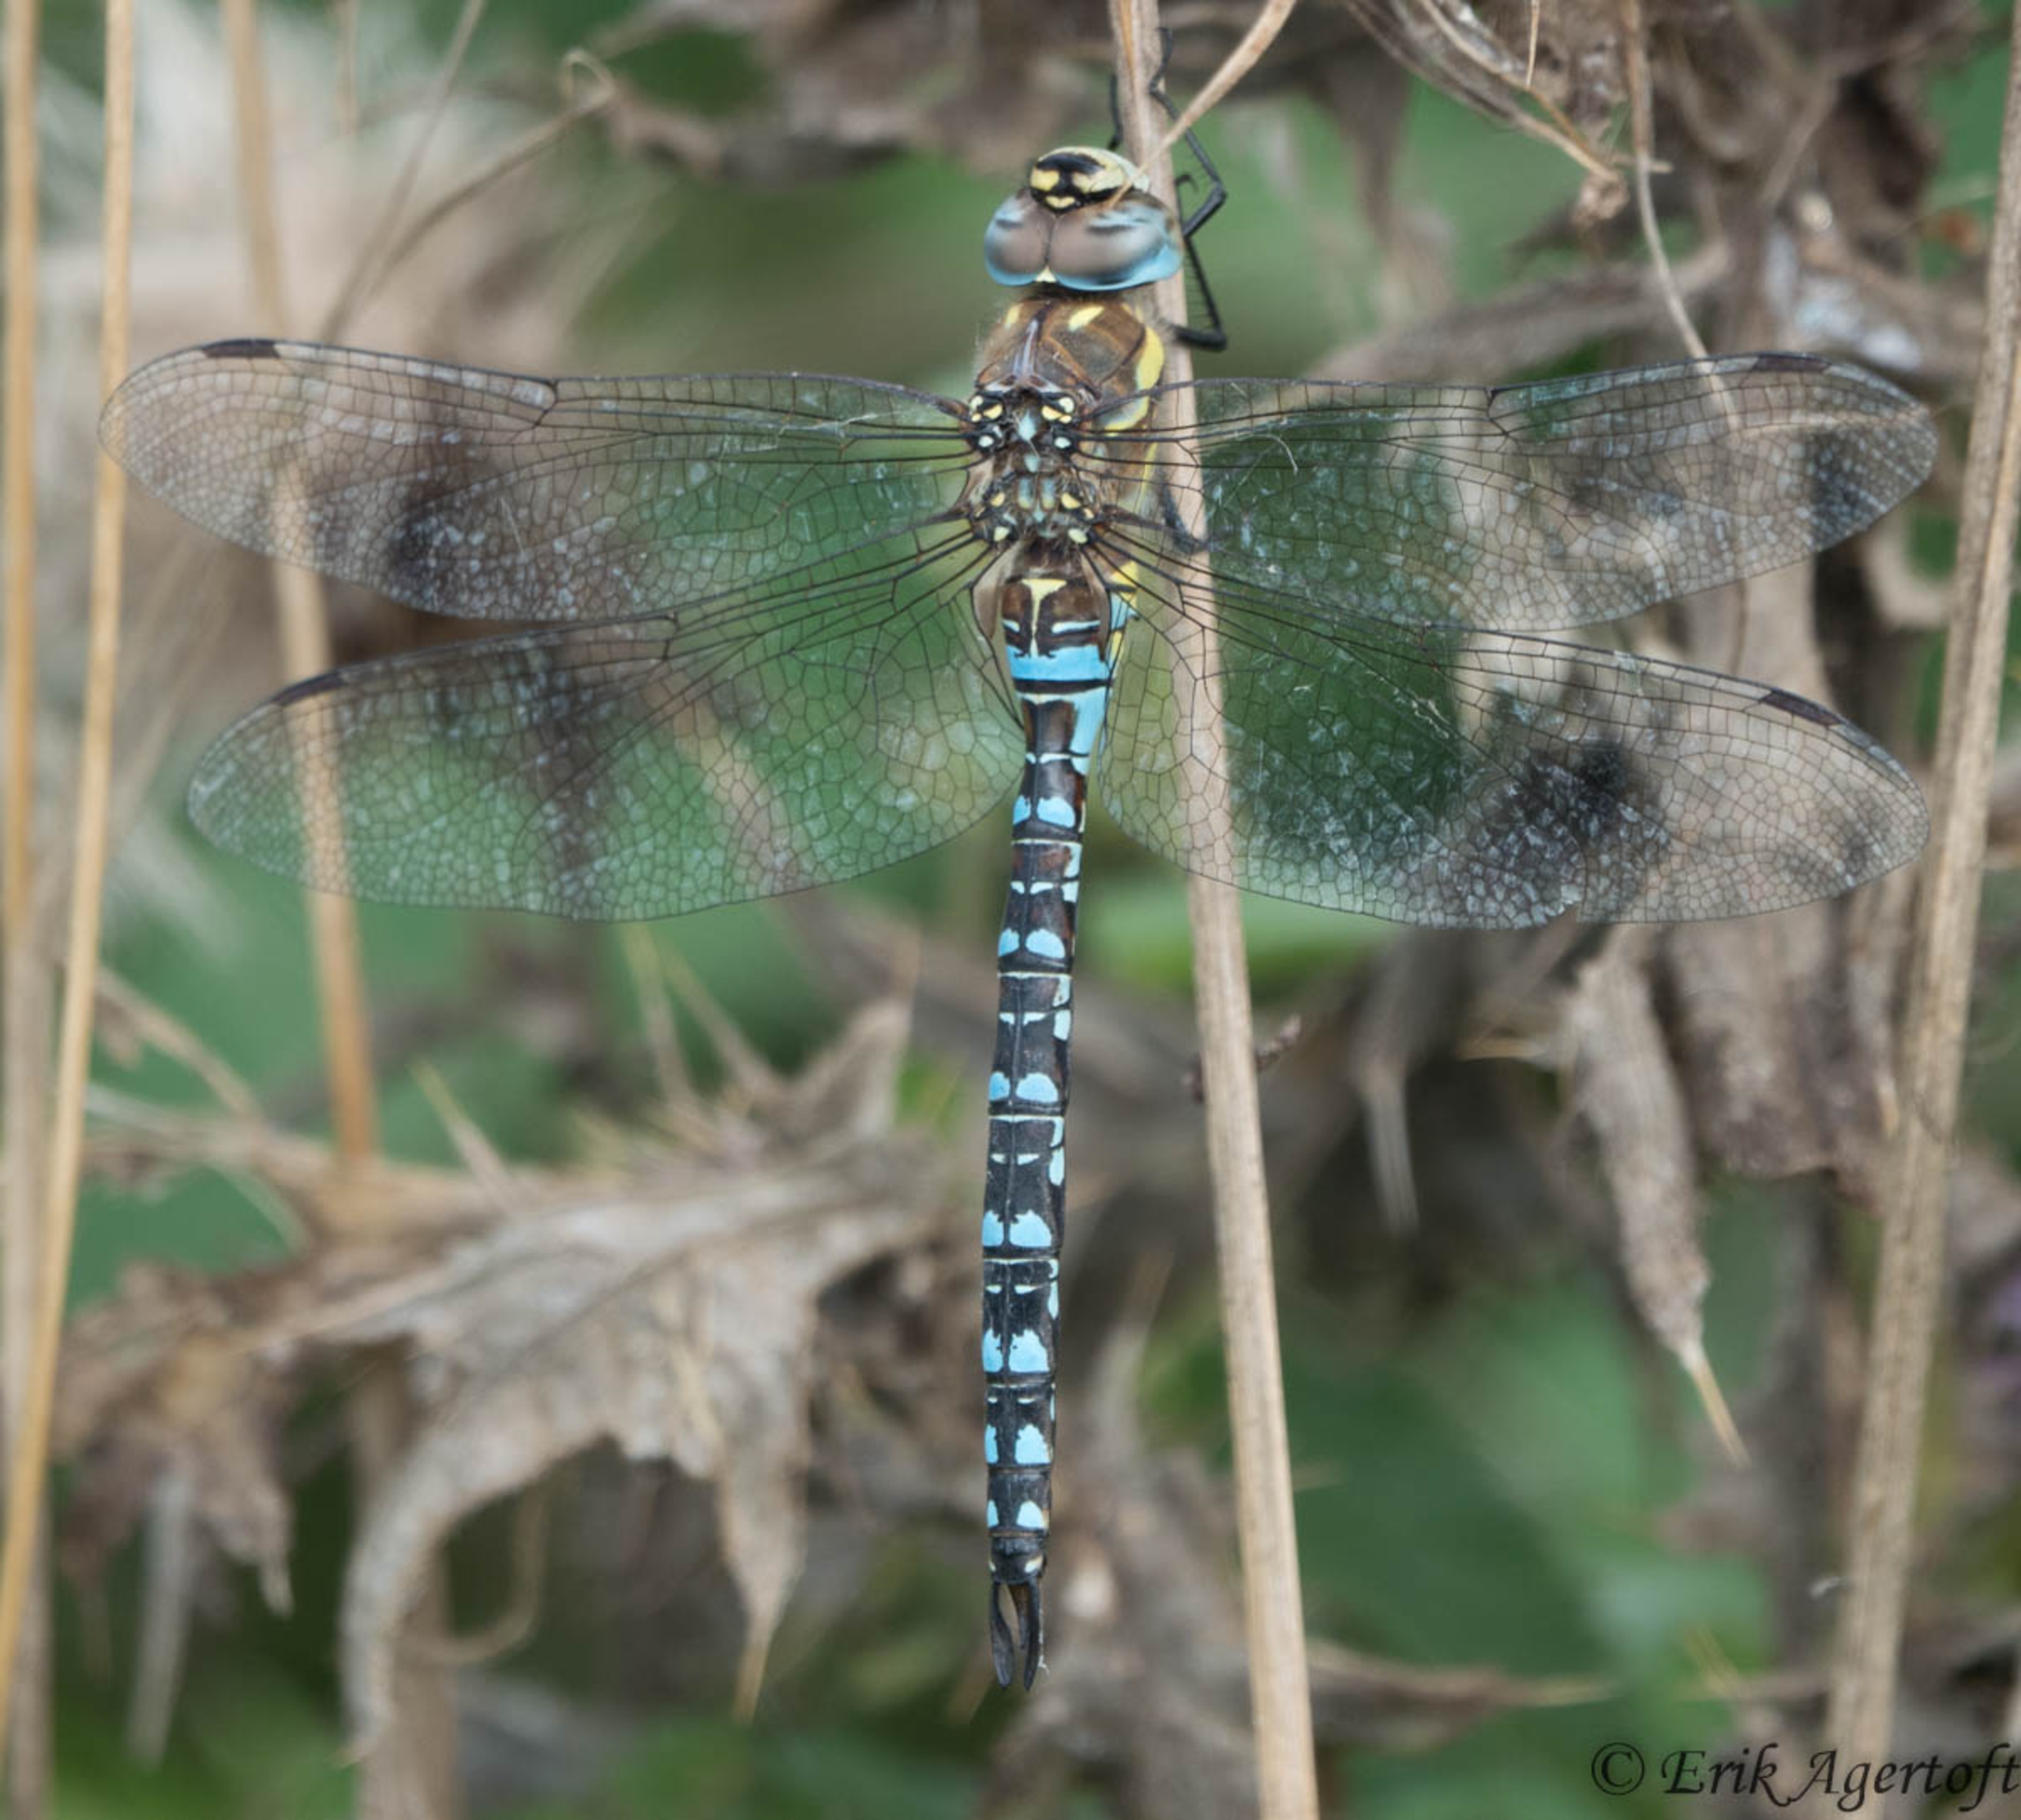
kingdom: Animalia
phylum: Arthropoda
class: Insecta
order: Odonata
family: Aeshnidae
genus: Aeshna
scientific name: Aeshna mixta
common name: Efterårs-mosaikguldsmed
